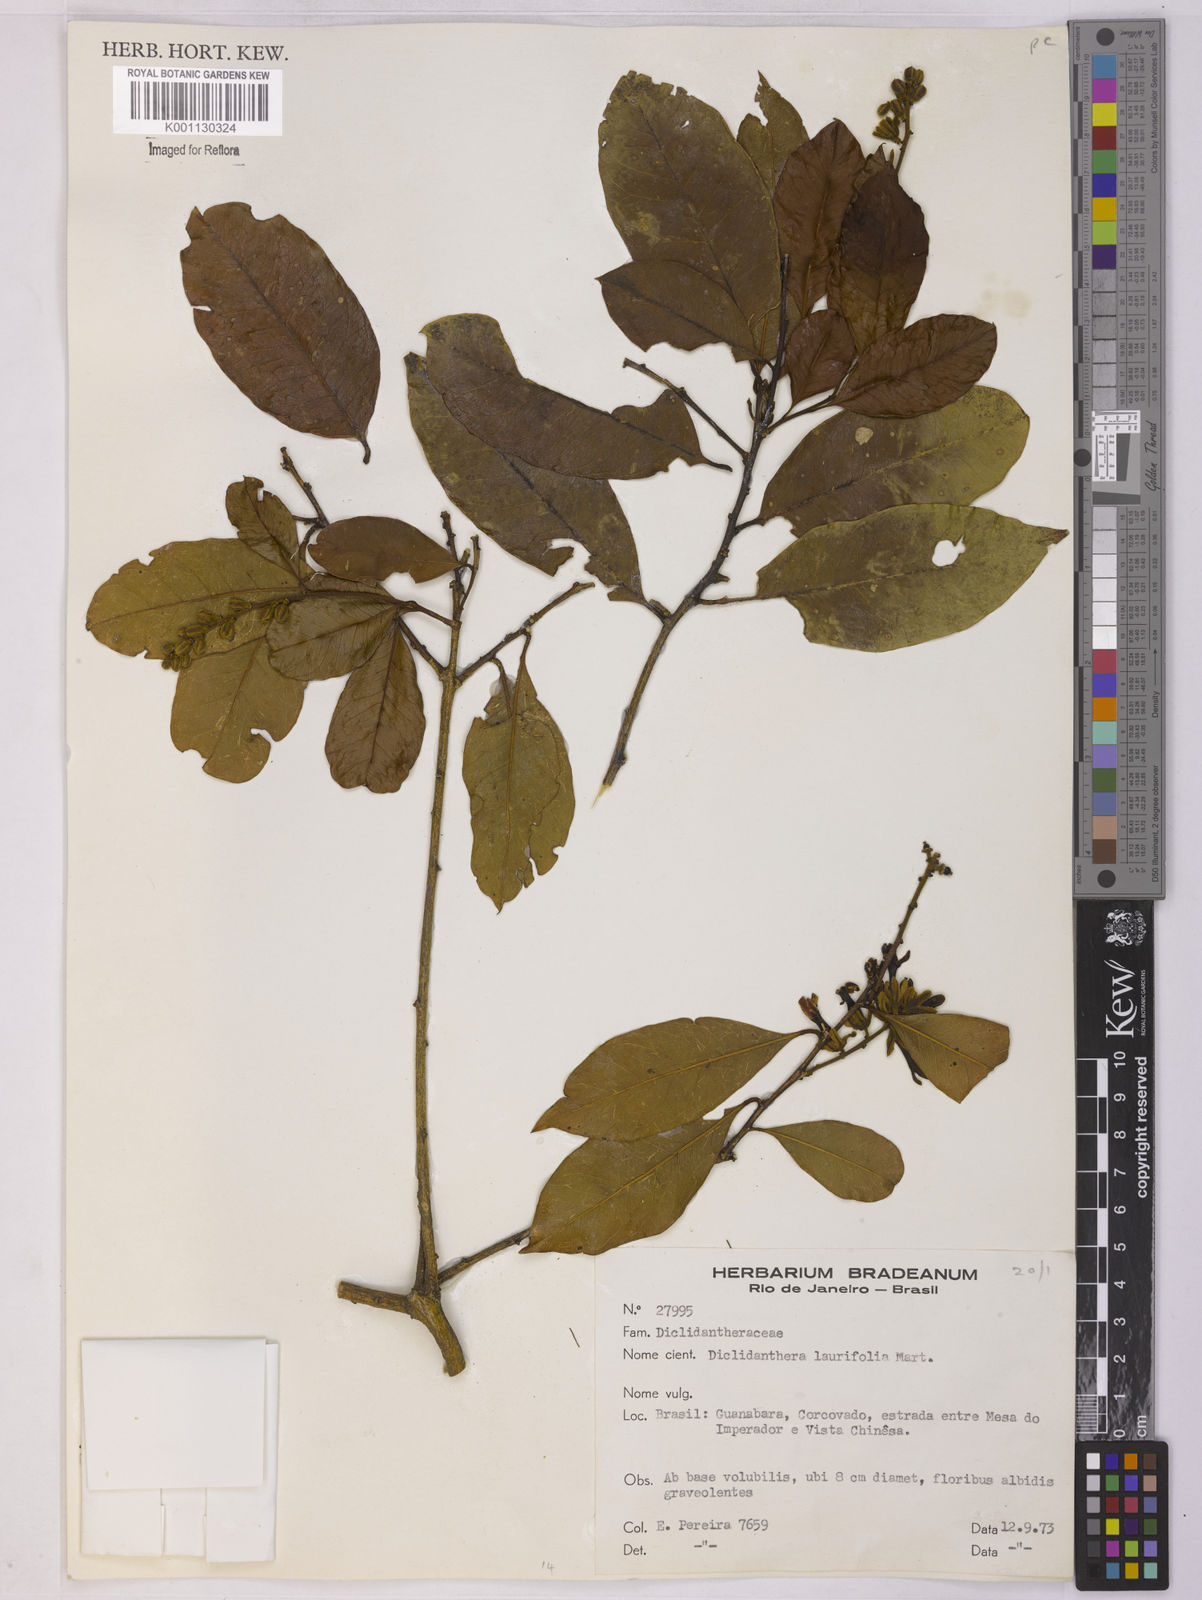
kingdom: Plantae
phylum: Tracheophyta
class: Magnoliopsida
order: Fabales
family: Polygalaceae
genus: Diclidanthera
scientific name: Diclidanthera laurifolia
